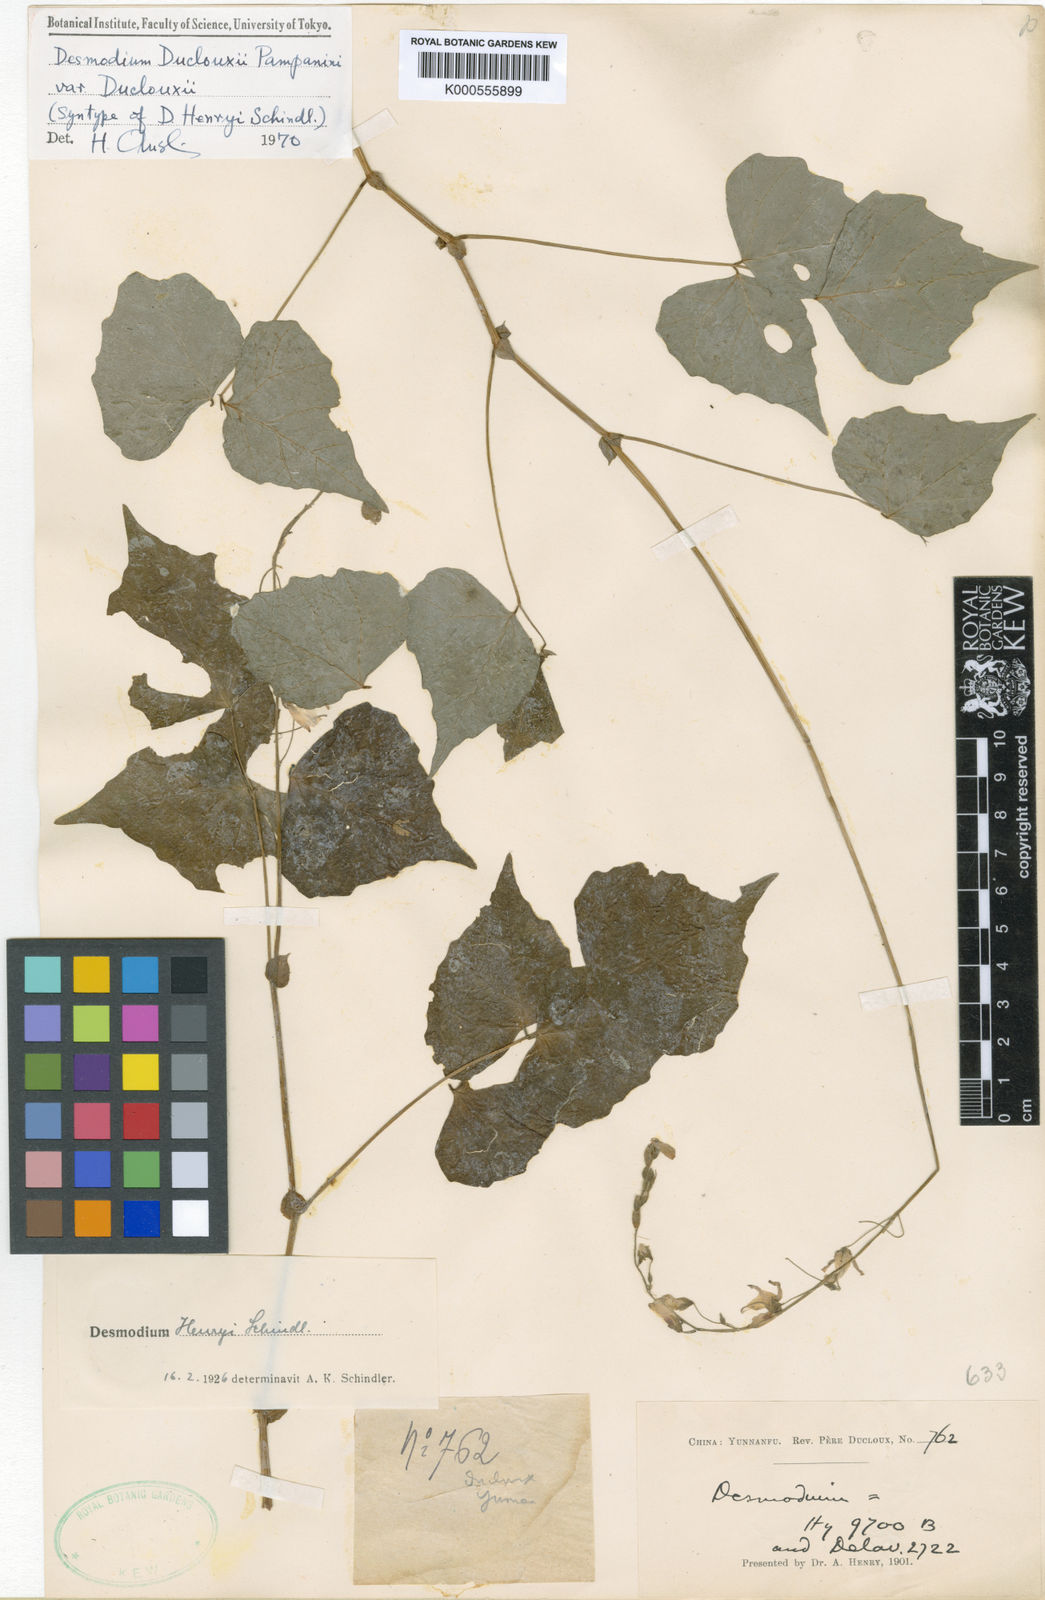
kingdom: Plantae
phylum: Tracheophyta
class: Magnoliopsida
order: Fabales
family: Fabaceae
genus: Hylodesmum
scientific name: Hylodesmum longipes
